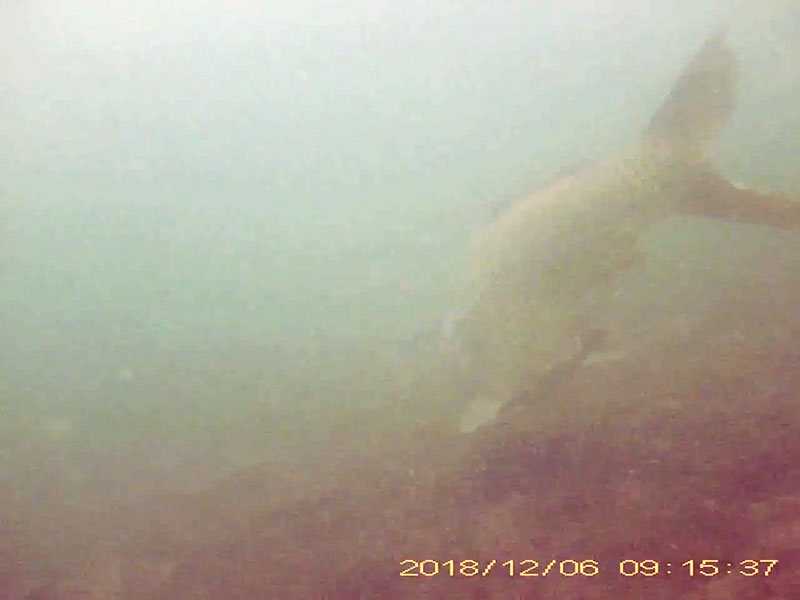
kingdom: Animalia
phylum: Chordata
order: Cypriniformes
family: Cyprinidae
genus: Cyprinus
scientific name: Cyprinus carpio
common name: コイ
